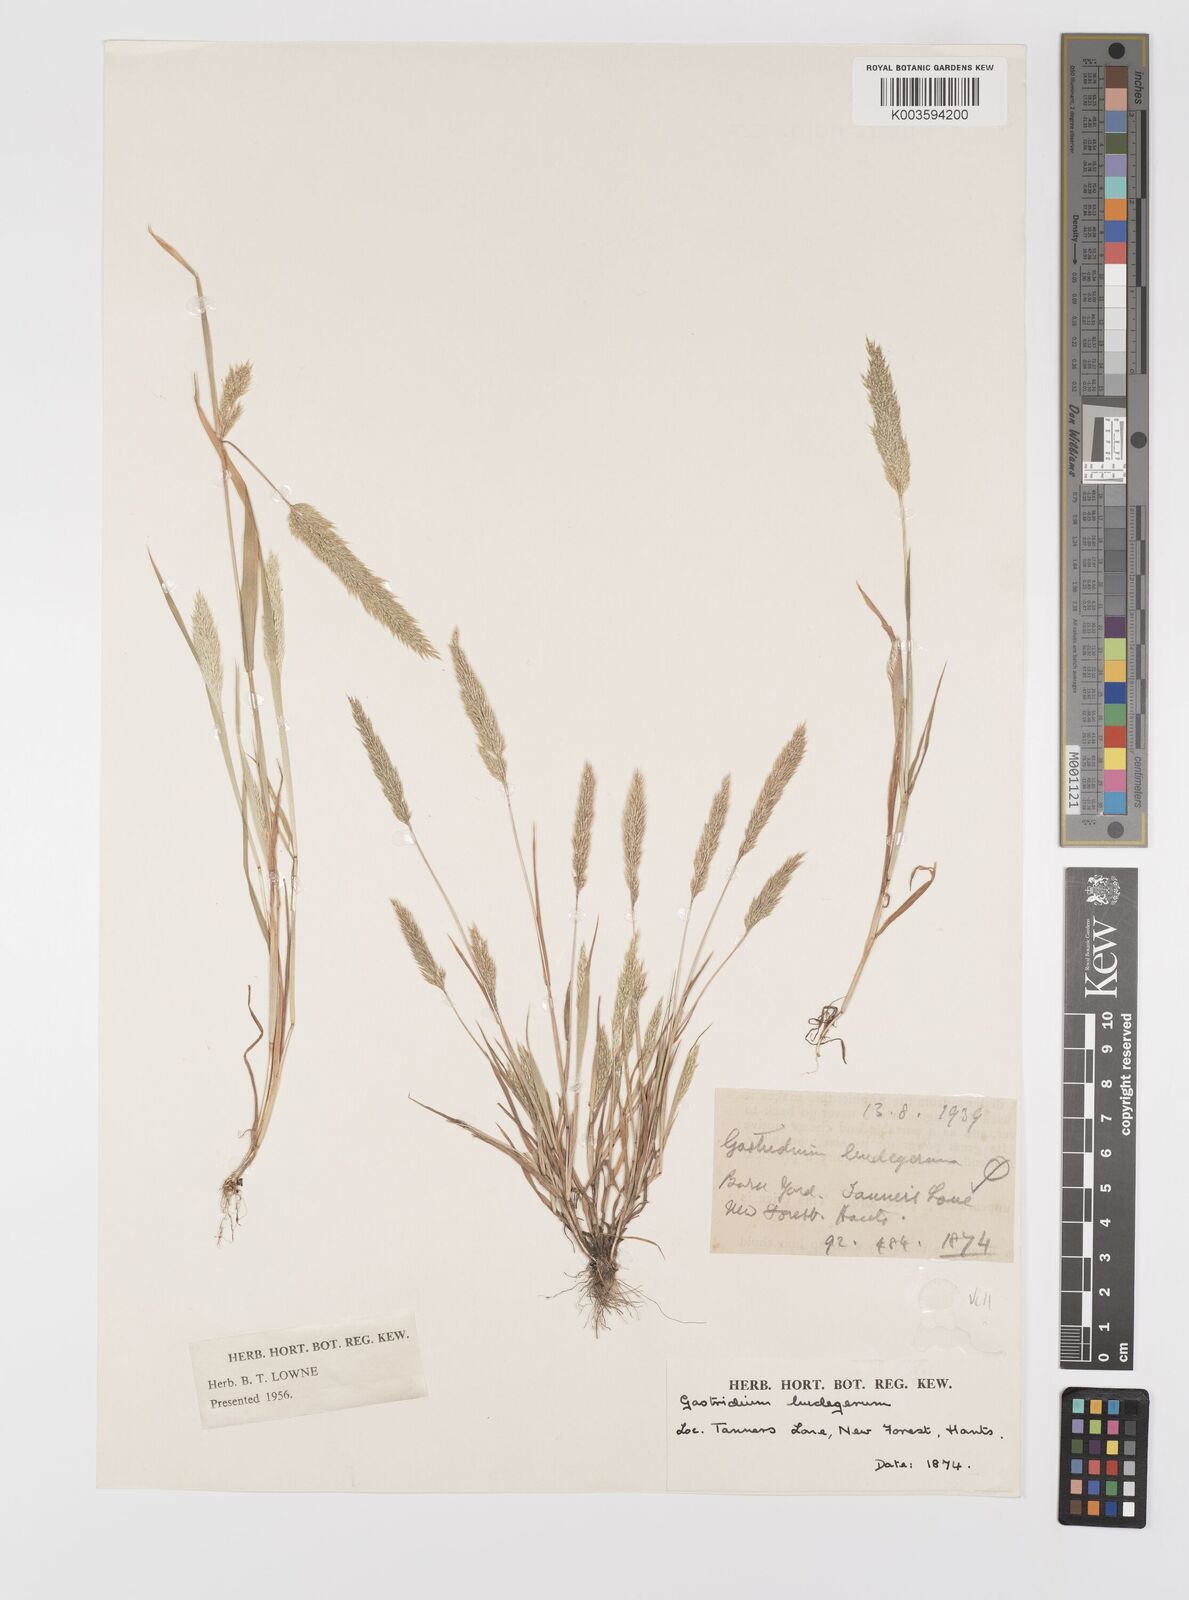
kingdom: Plantae
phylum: Tracheophyta
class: Liliopsida
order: Poales
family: Poaceae
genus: Gastridium
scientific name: Gastridium ventricosum
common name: Nit-grass
